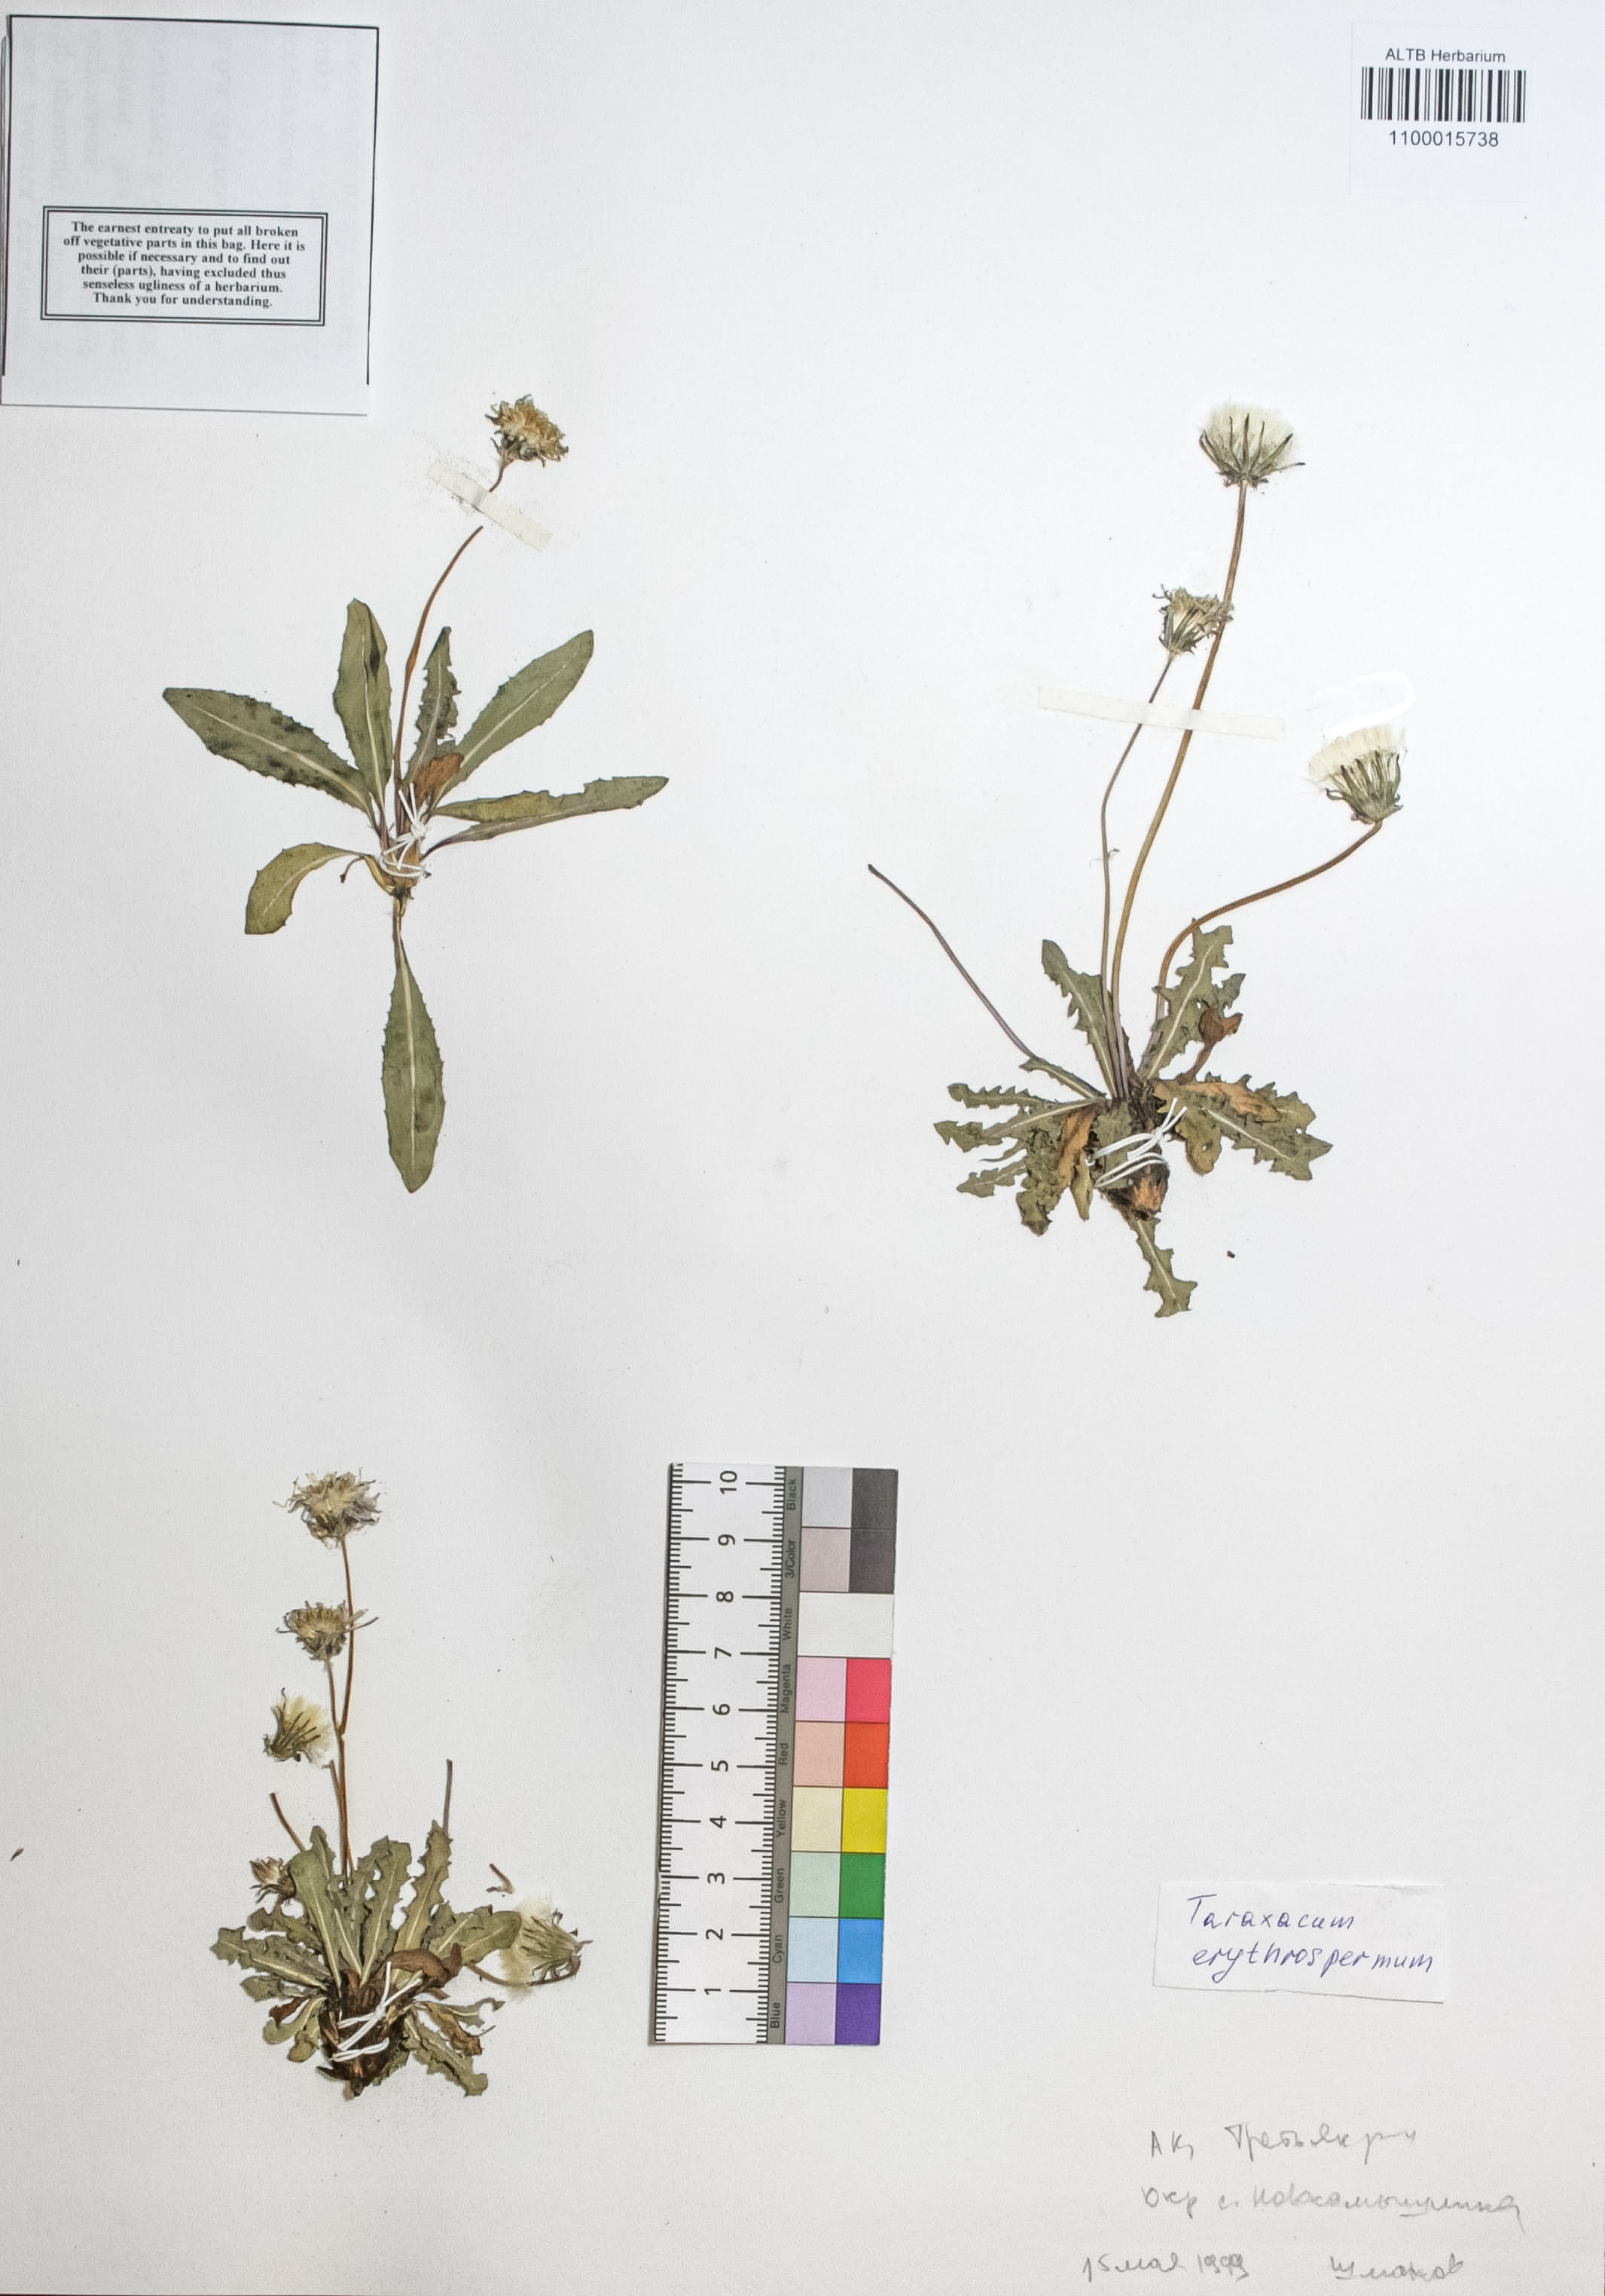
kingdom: Plantae
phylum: Tracheophyta
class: Magnoliopsida
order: Asterales
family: Asteraceae
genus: Taraxacum
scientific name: Taraxacum erythrospermum
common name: Rock dandelion
